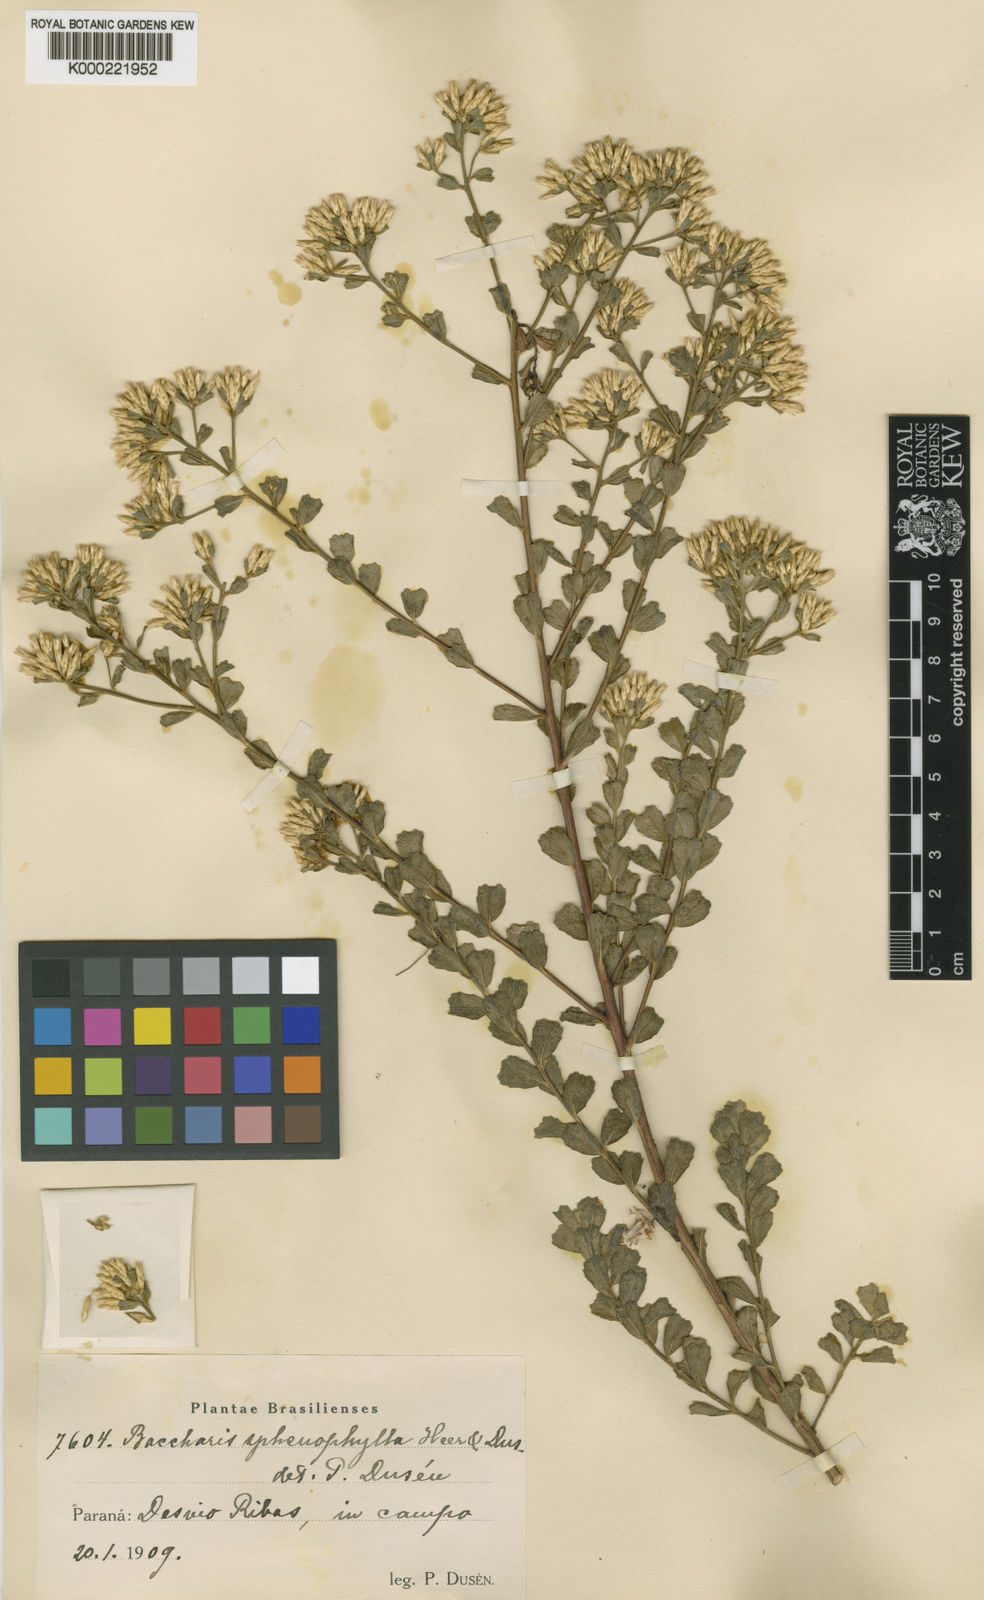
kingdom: Plantae
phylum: Tracheophyta
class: Magnoliopsida
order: Asterales
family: Asteraceae
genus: Baccharis
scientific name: Baccharis
